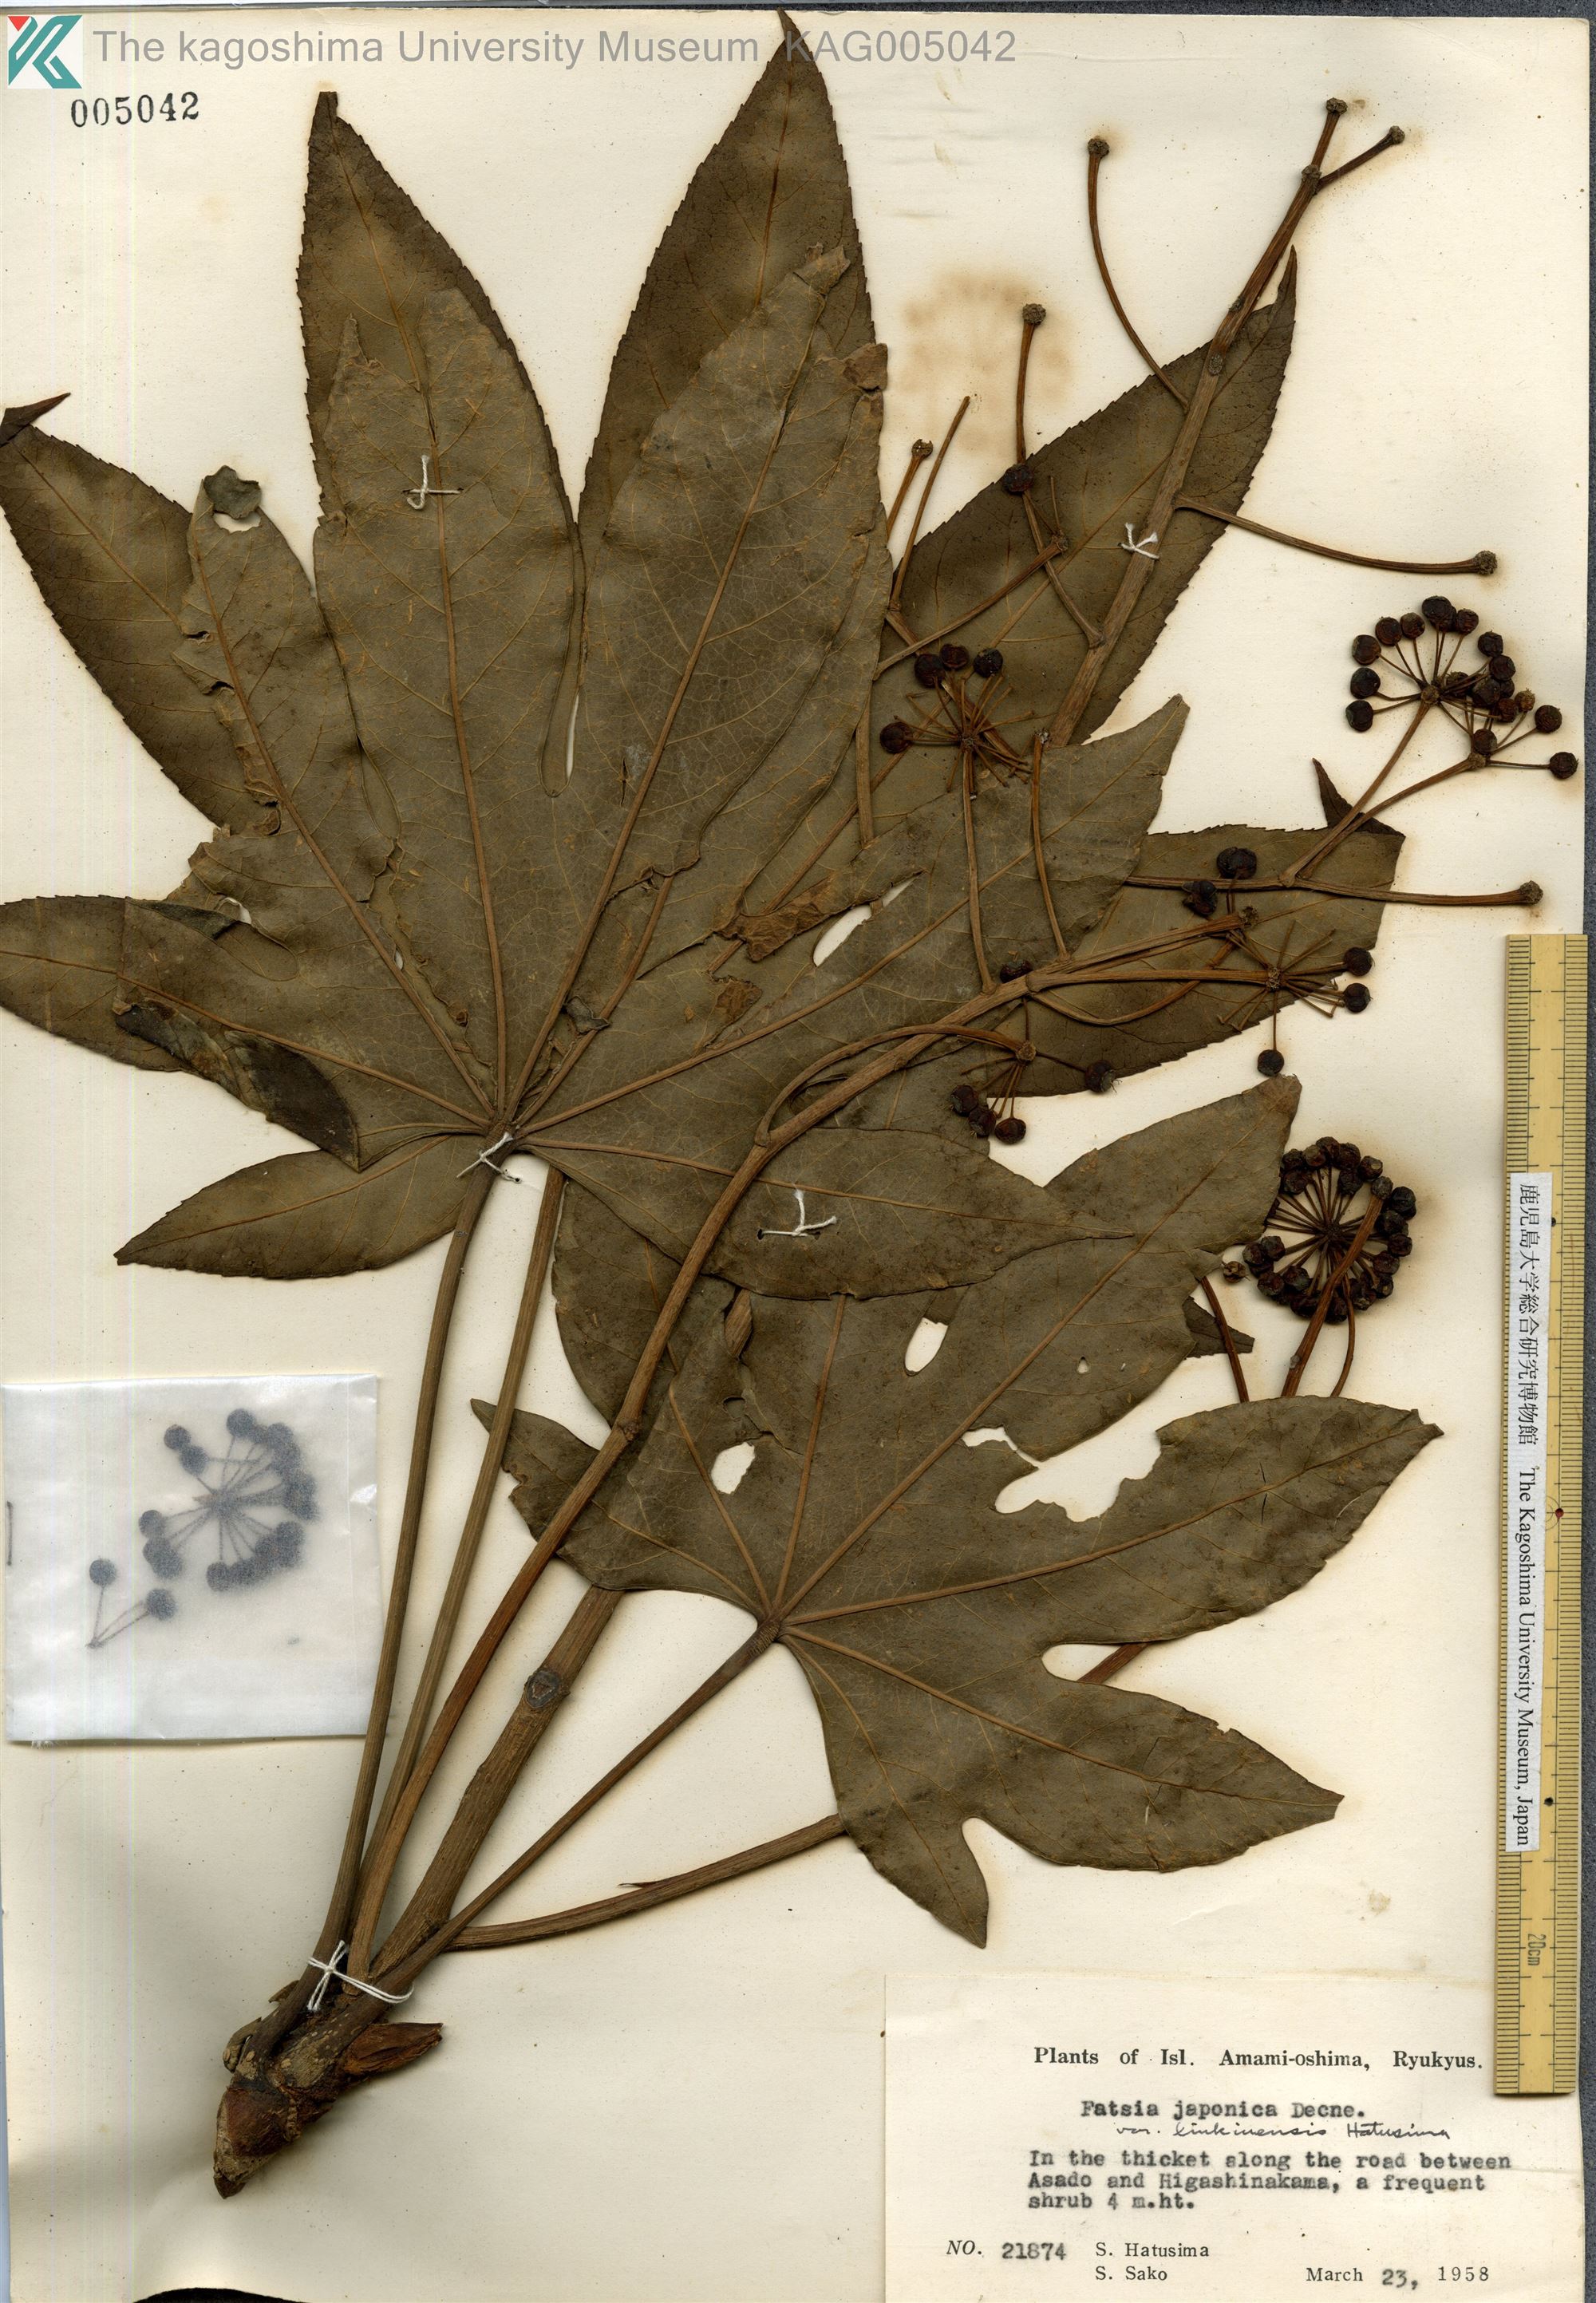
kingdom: Plantae
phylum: Tracheophyta
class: Magnoliopsida
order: Apiales
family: Araliaceae
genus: Fatsia
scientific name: Fatsia japonica
